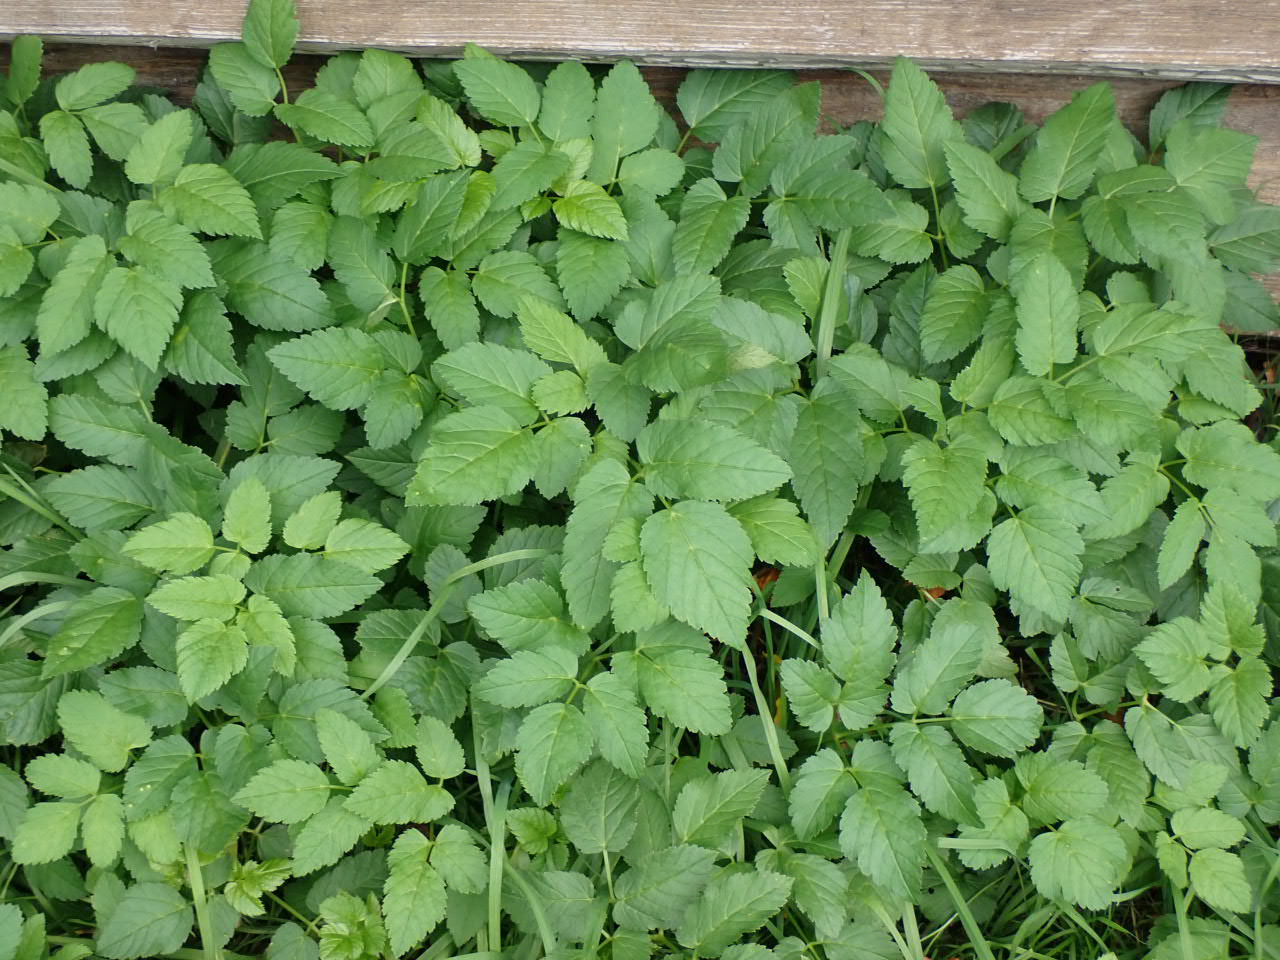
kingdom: Plantae
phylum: Tracheophyta
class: Magnoliopsida
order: Apiales
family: Apiaceae
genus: Aegopodium
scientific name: Aegopodium podagraria
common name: Skvalderkål
